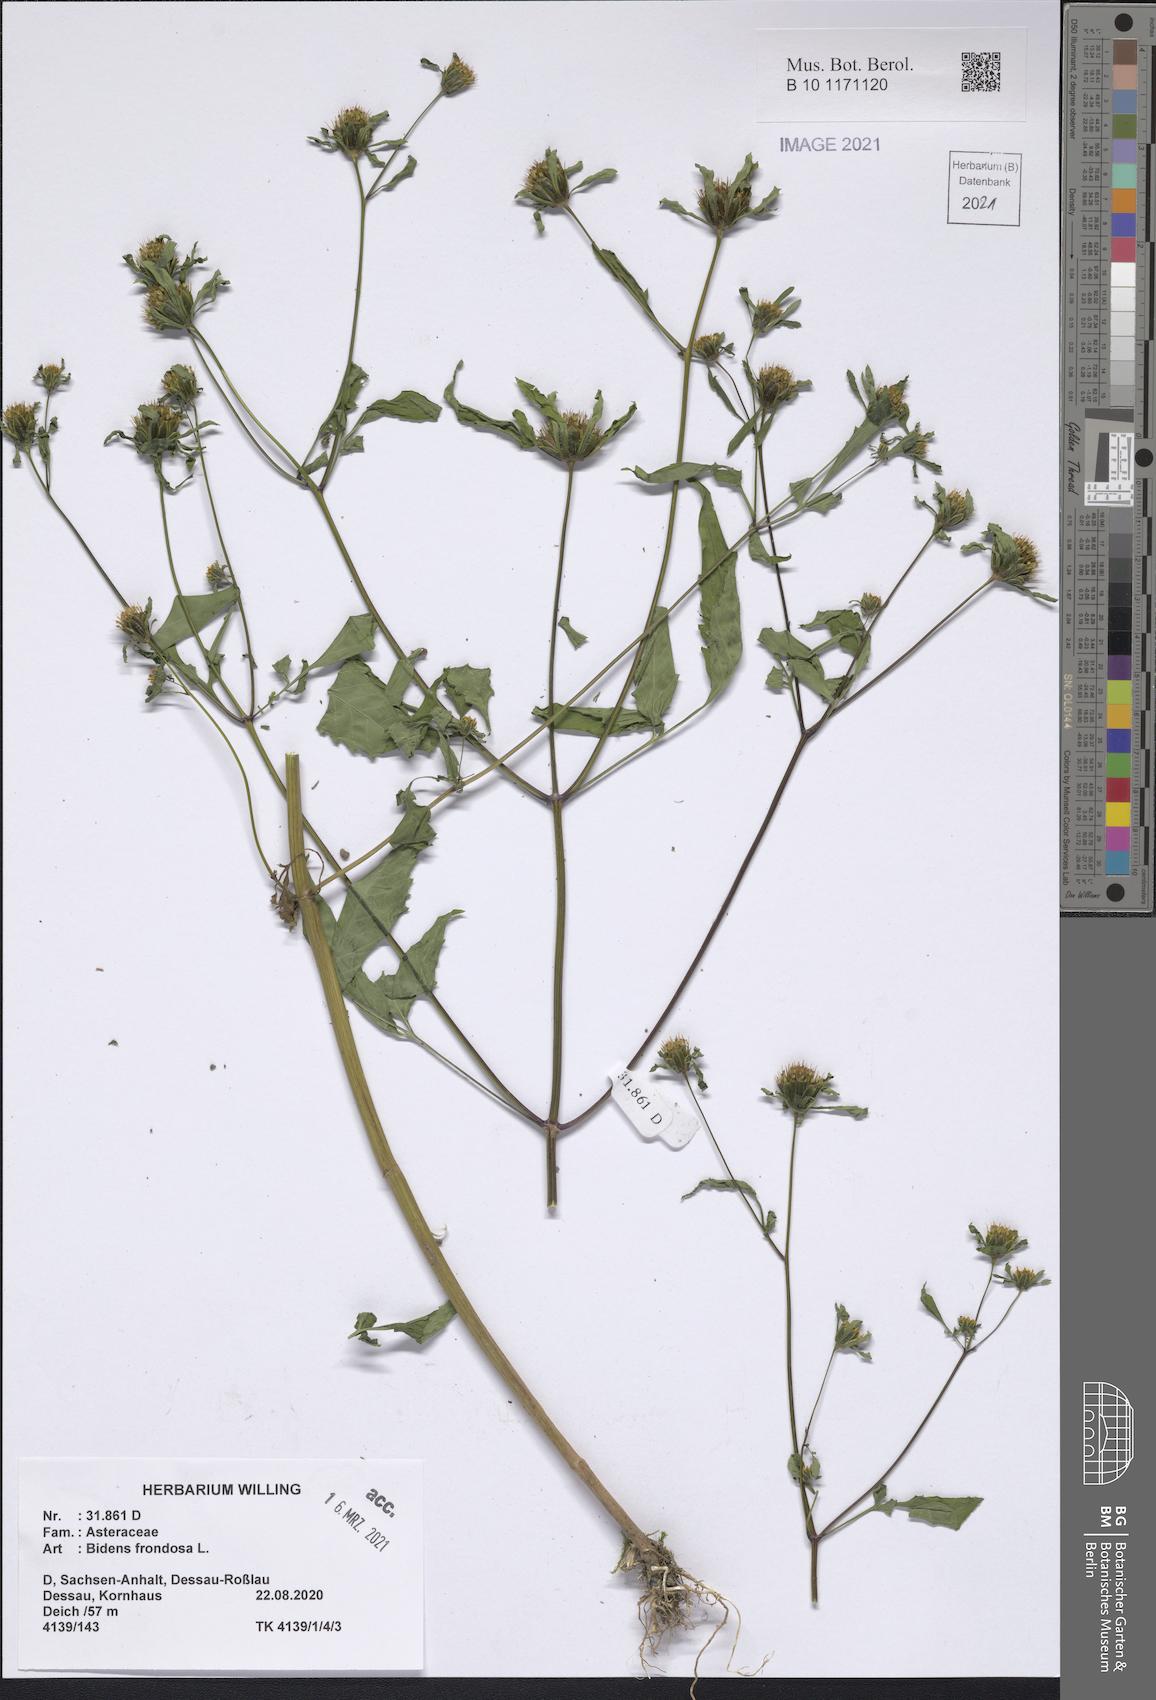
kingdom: Plantae
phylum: Tracheophyta
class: Magnoliopsida
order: Asterales
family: Asteraceae
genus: Bidens
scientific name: Bidens frondosa
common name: Beggarticks
